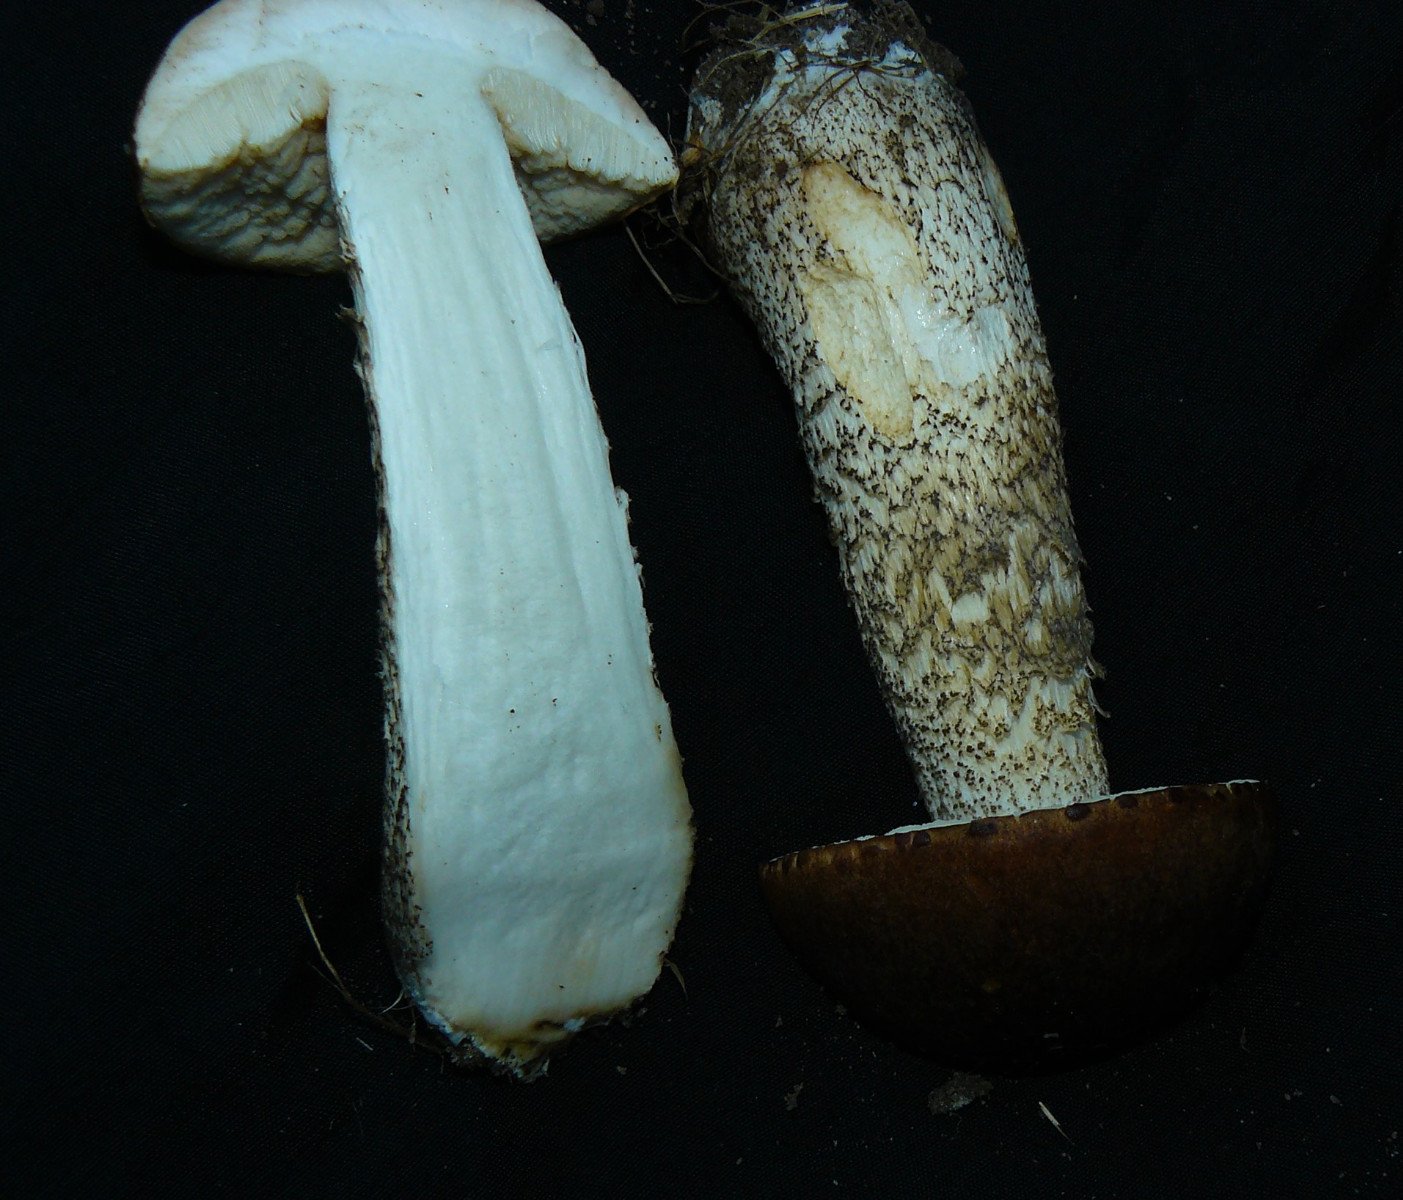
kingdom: Fungi
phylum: Basidiomycota
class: Agaricomycetes
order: Boletales
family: Boletaceae
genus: Leccinum
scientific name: Leccinum scabrum
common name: brun skælrørhat
